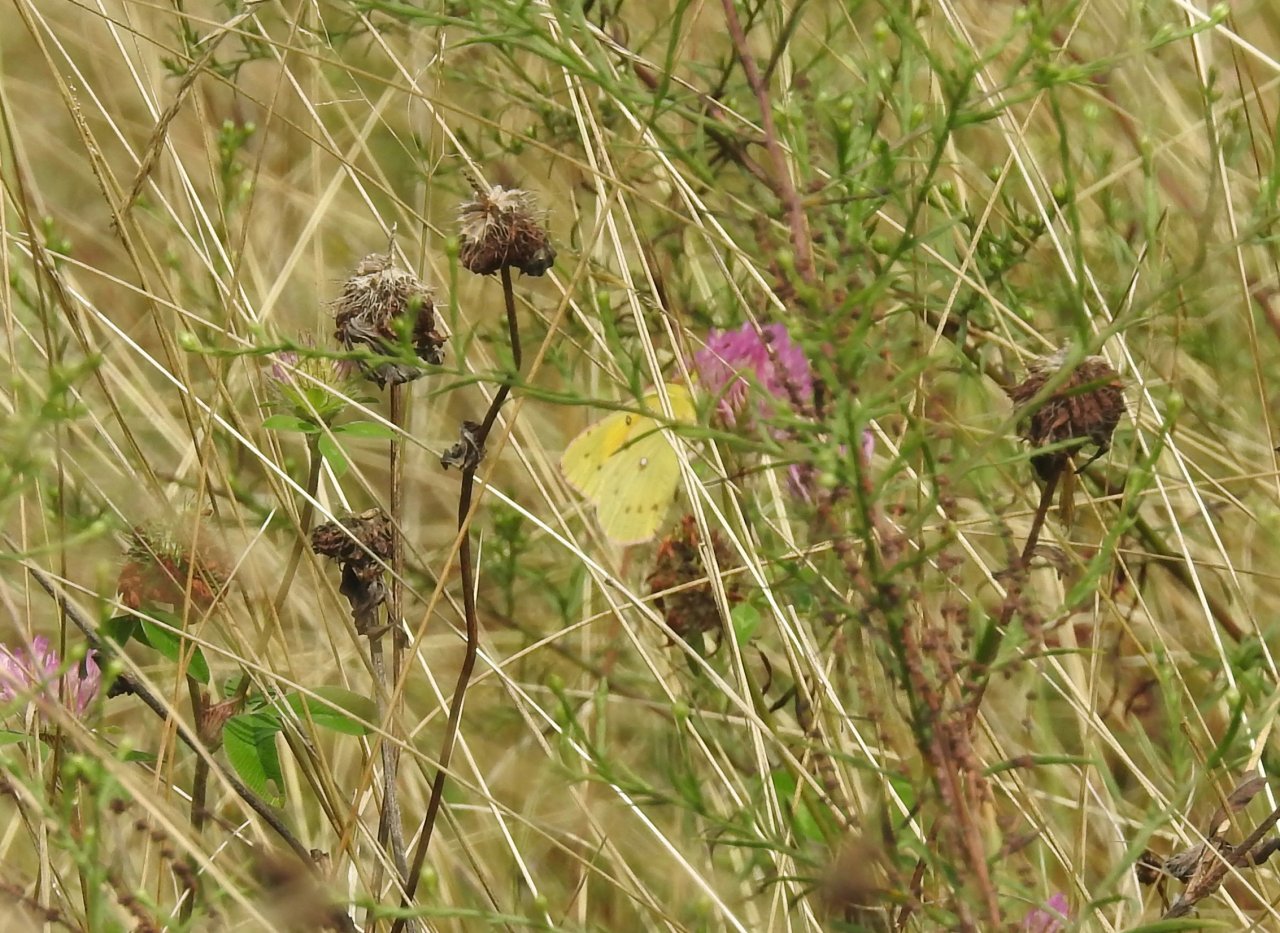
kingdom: Animalia
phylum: Arthropoda
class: Insecta
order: Lepidoptera
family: Pieridae
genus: Colias
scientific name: Colias eurytheme
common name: Orange Sulphur
